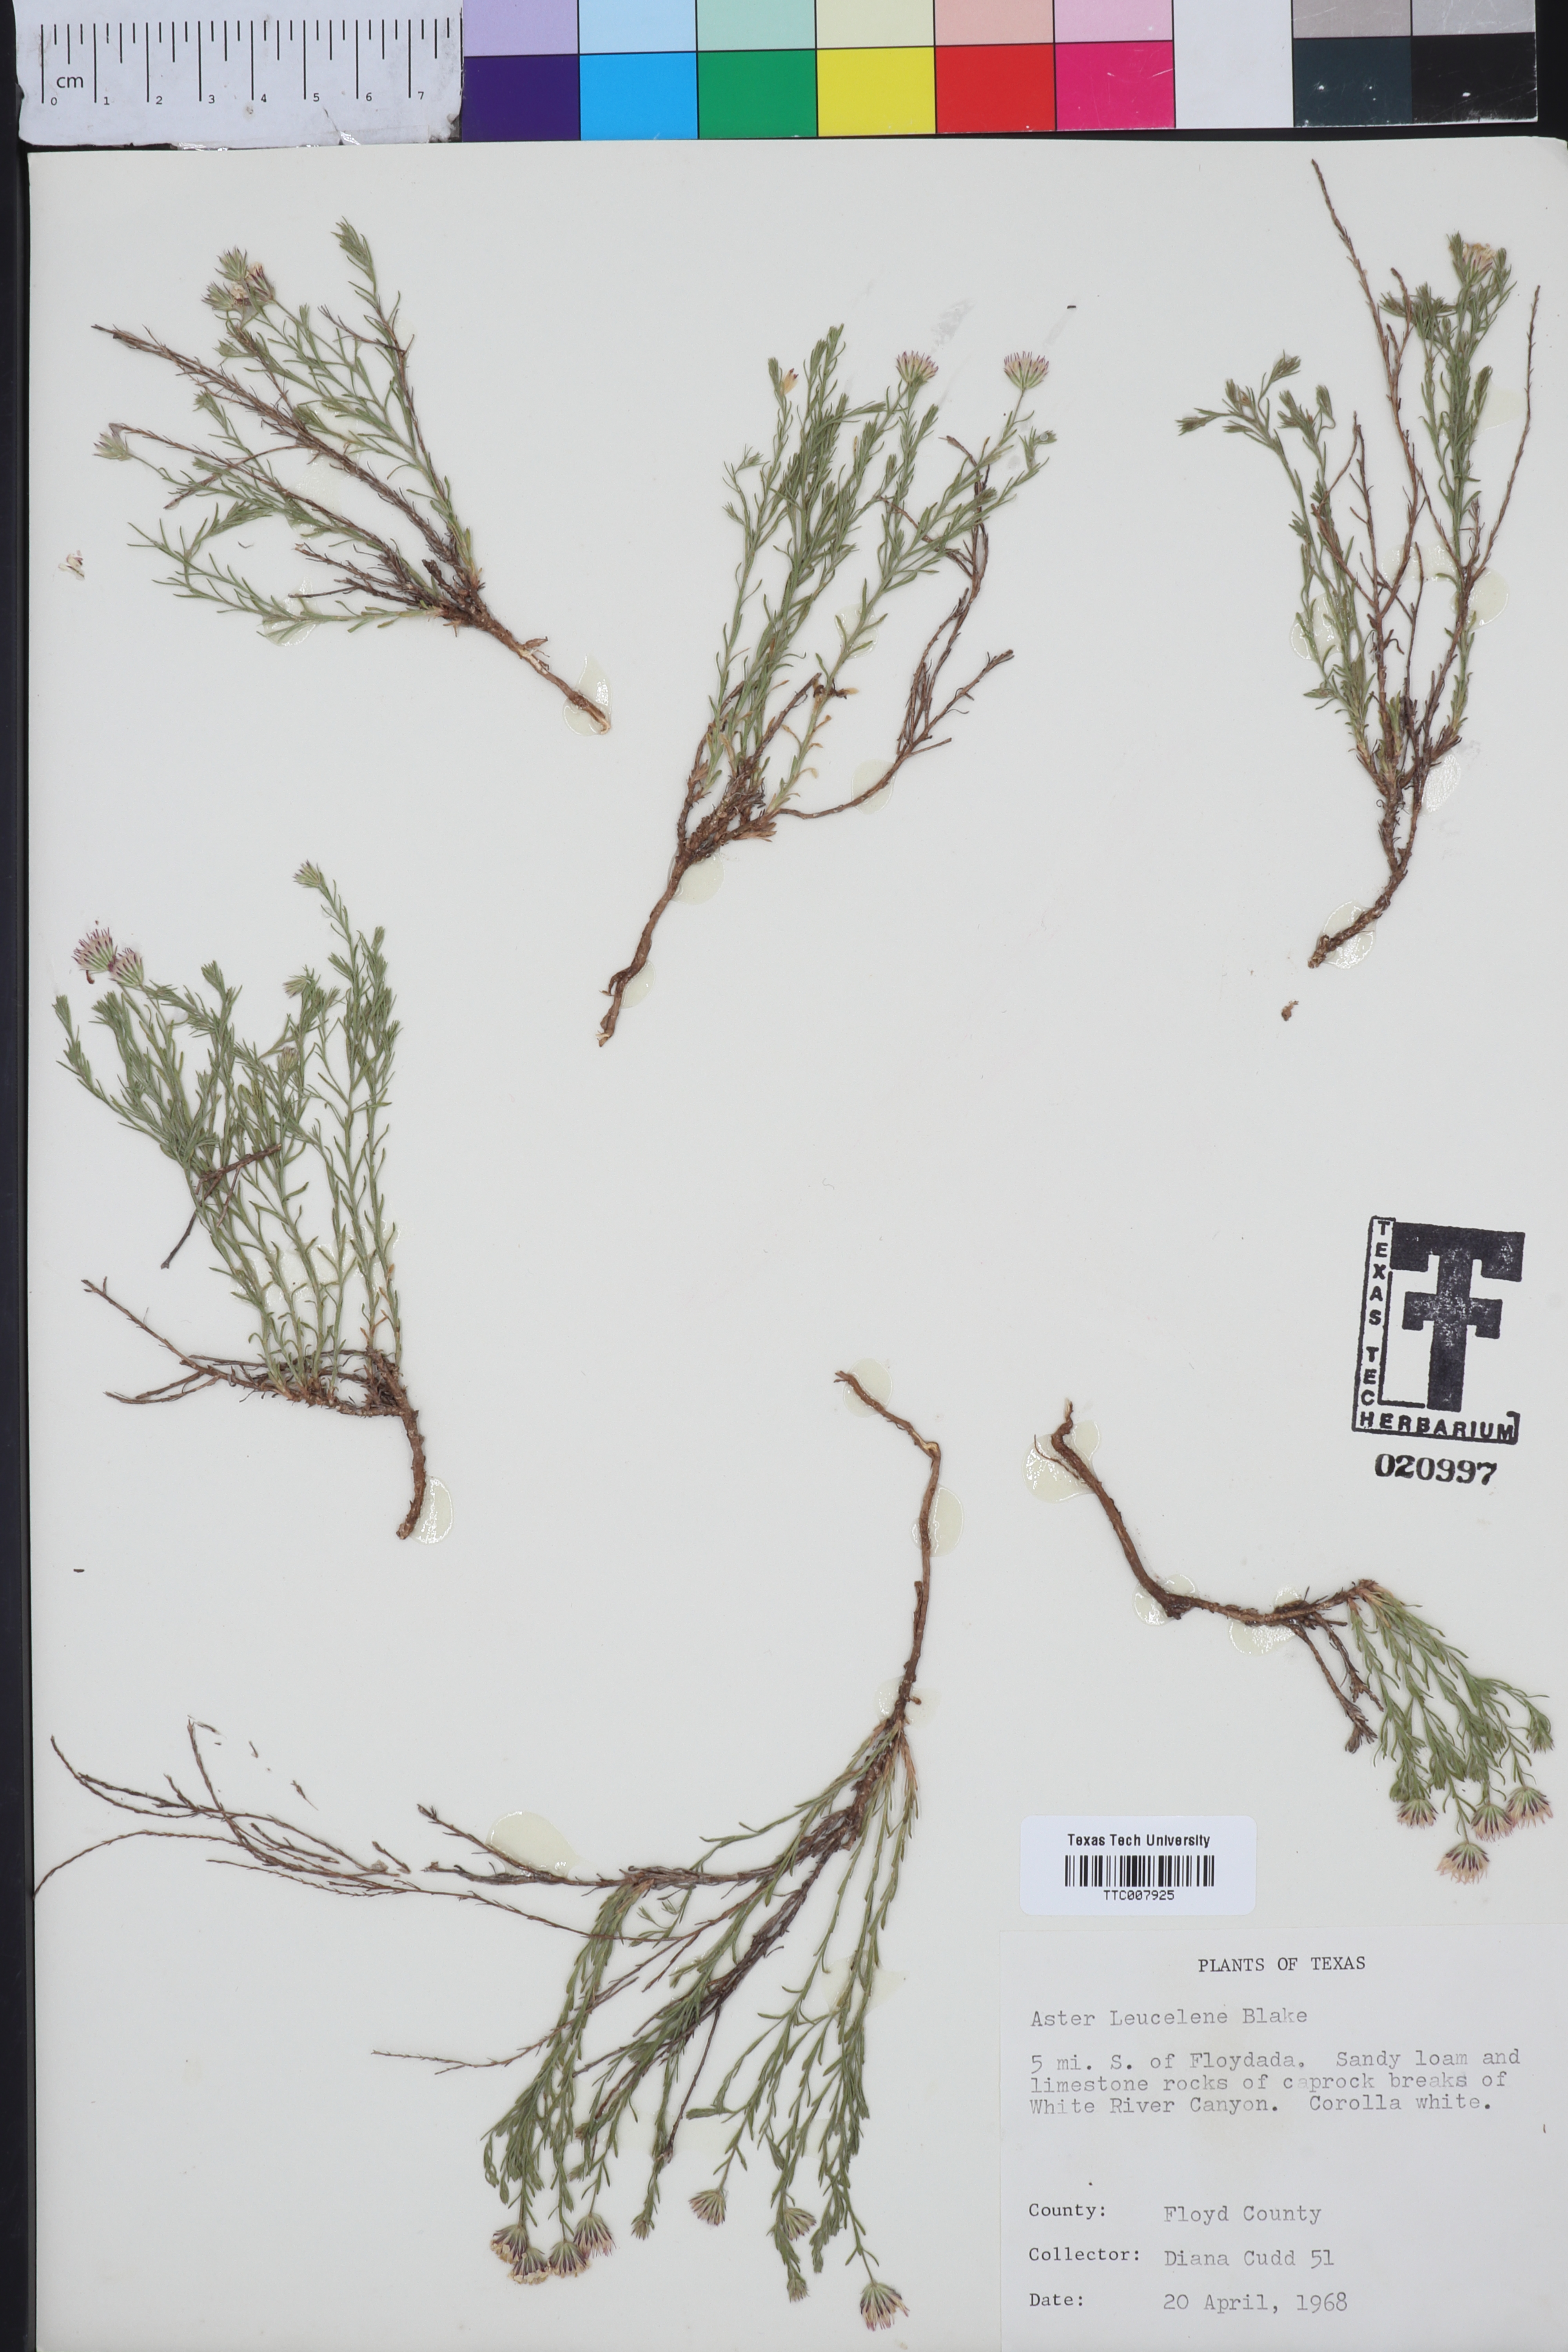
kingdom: Plantae
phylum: Tracheophyta
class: Magnoliopsida
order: Asterales
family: Asteraceae
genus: Chaetopappa
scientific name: Chaetopappa ericoides
